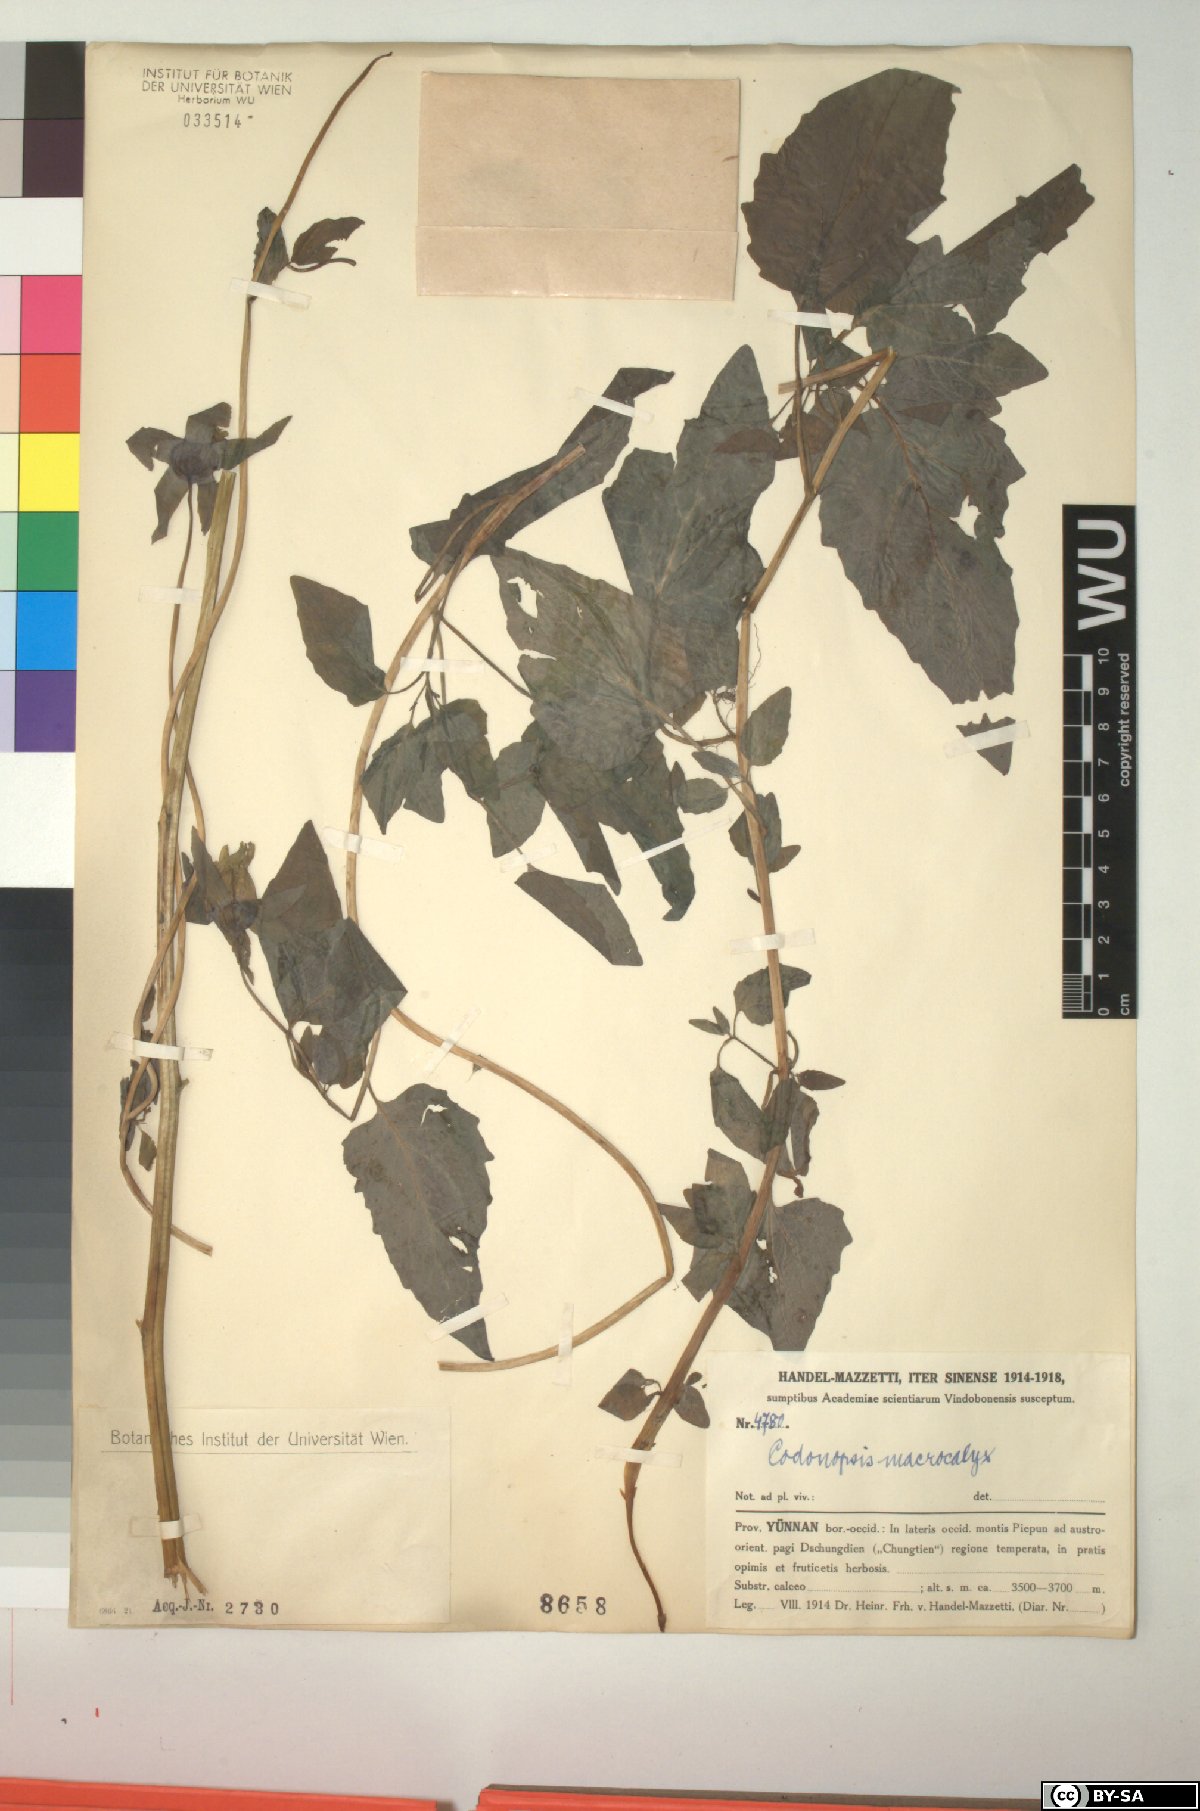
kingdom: Plantae
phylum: Tracheophyta
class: Magnoliopsida
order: Asterales
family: Campanulaceae
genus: Codonopsis
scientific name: Codonopsis benthamii
